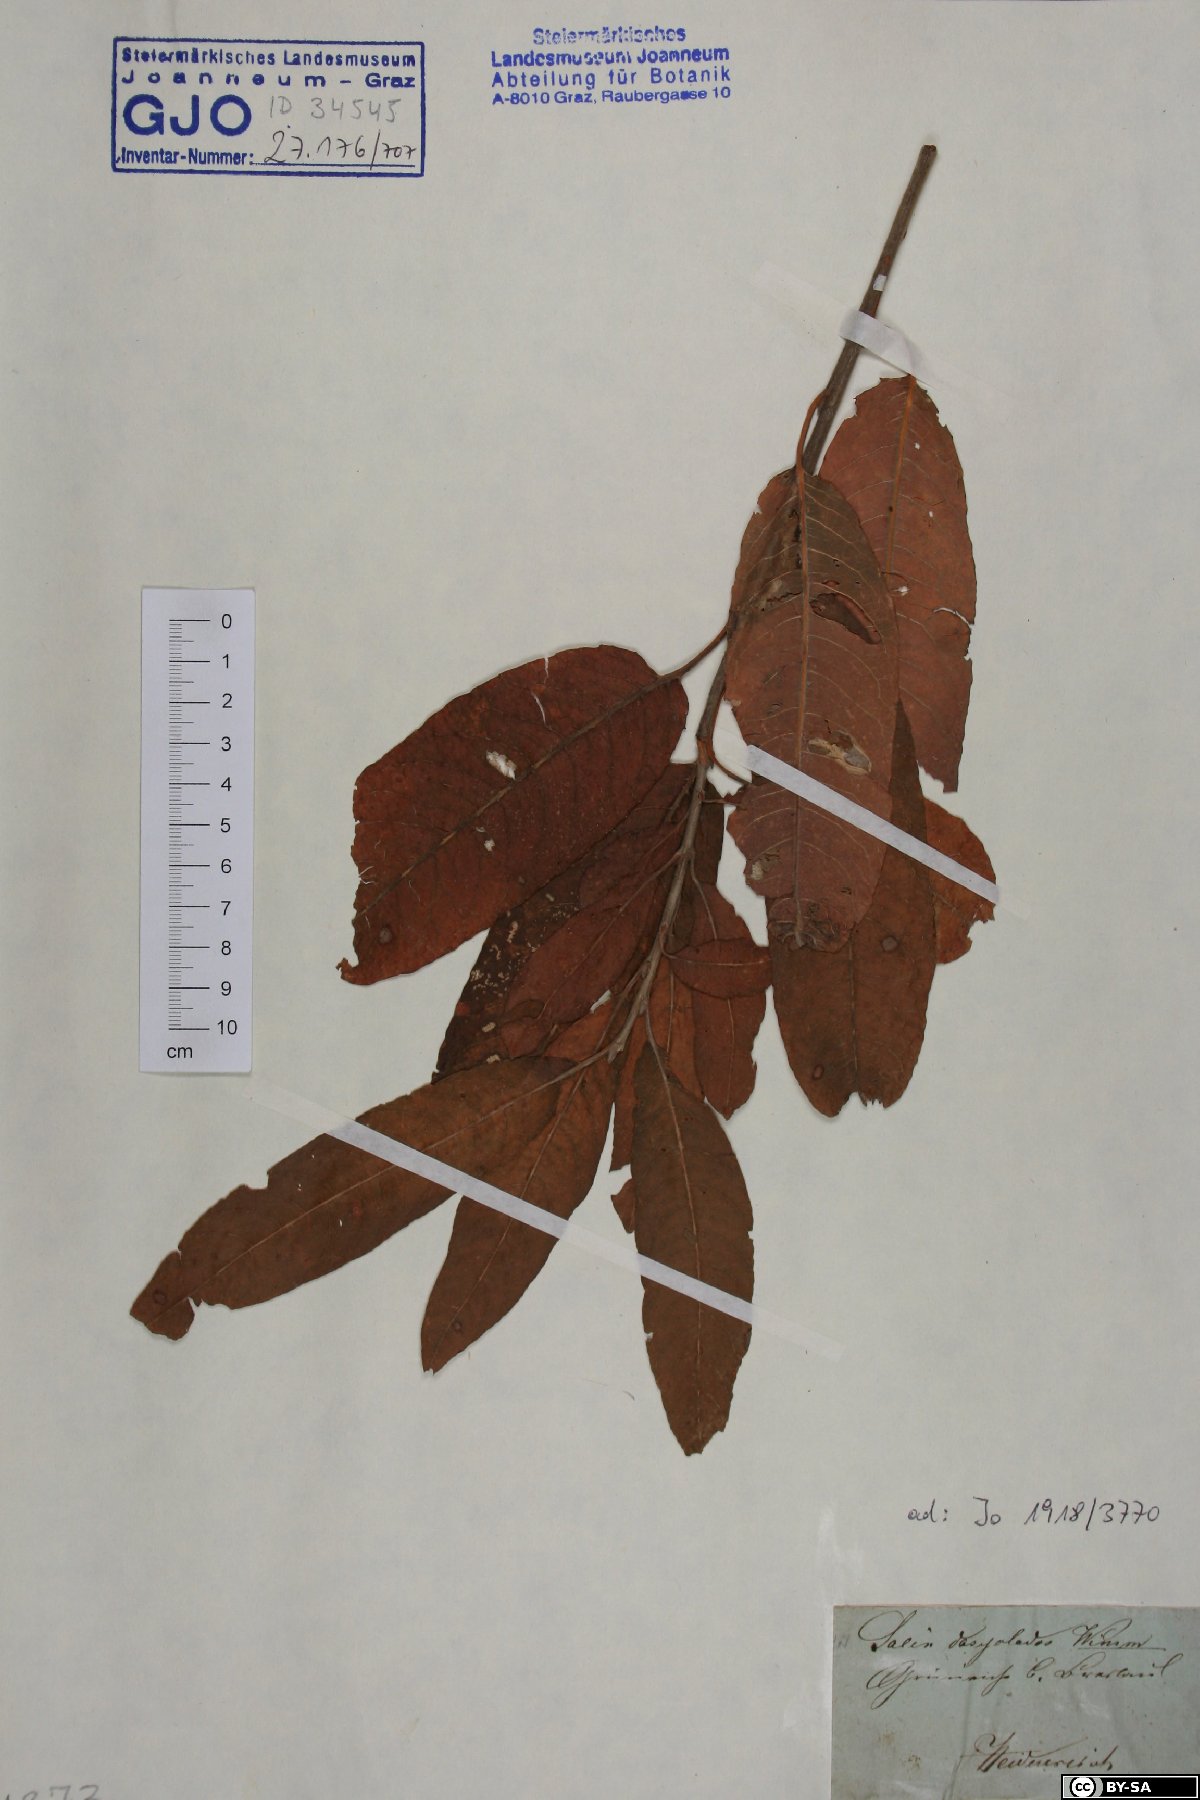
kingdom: Plantae
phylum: Tracheophyta
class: Magnoliopsida
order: Malpighiales
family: Salicaceae
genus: Salix
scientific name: Salix gmelinii
